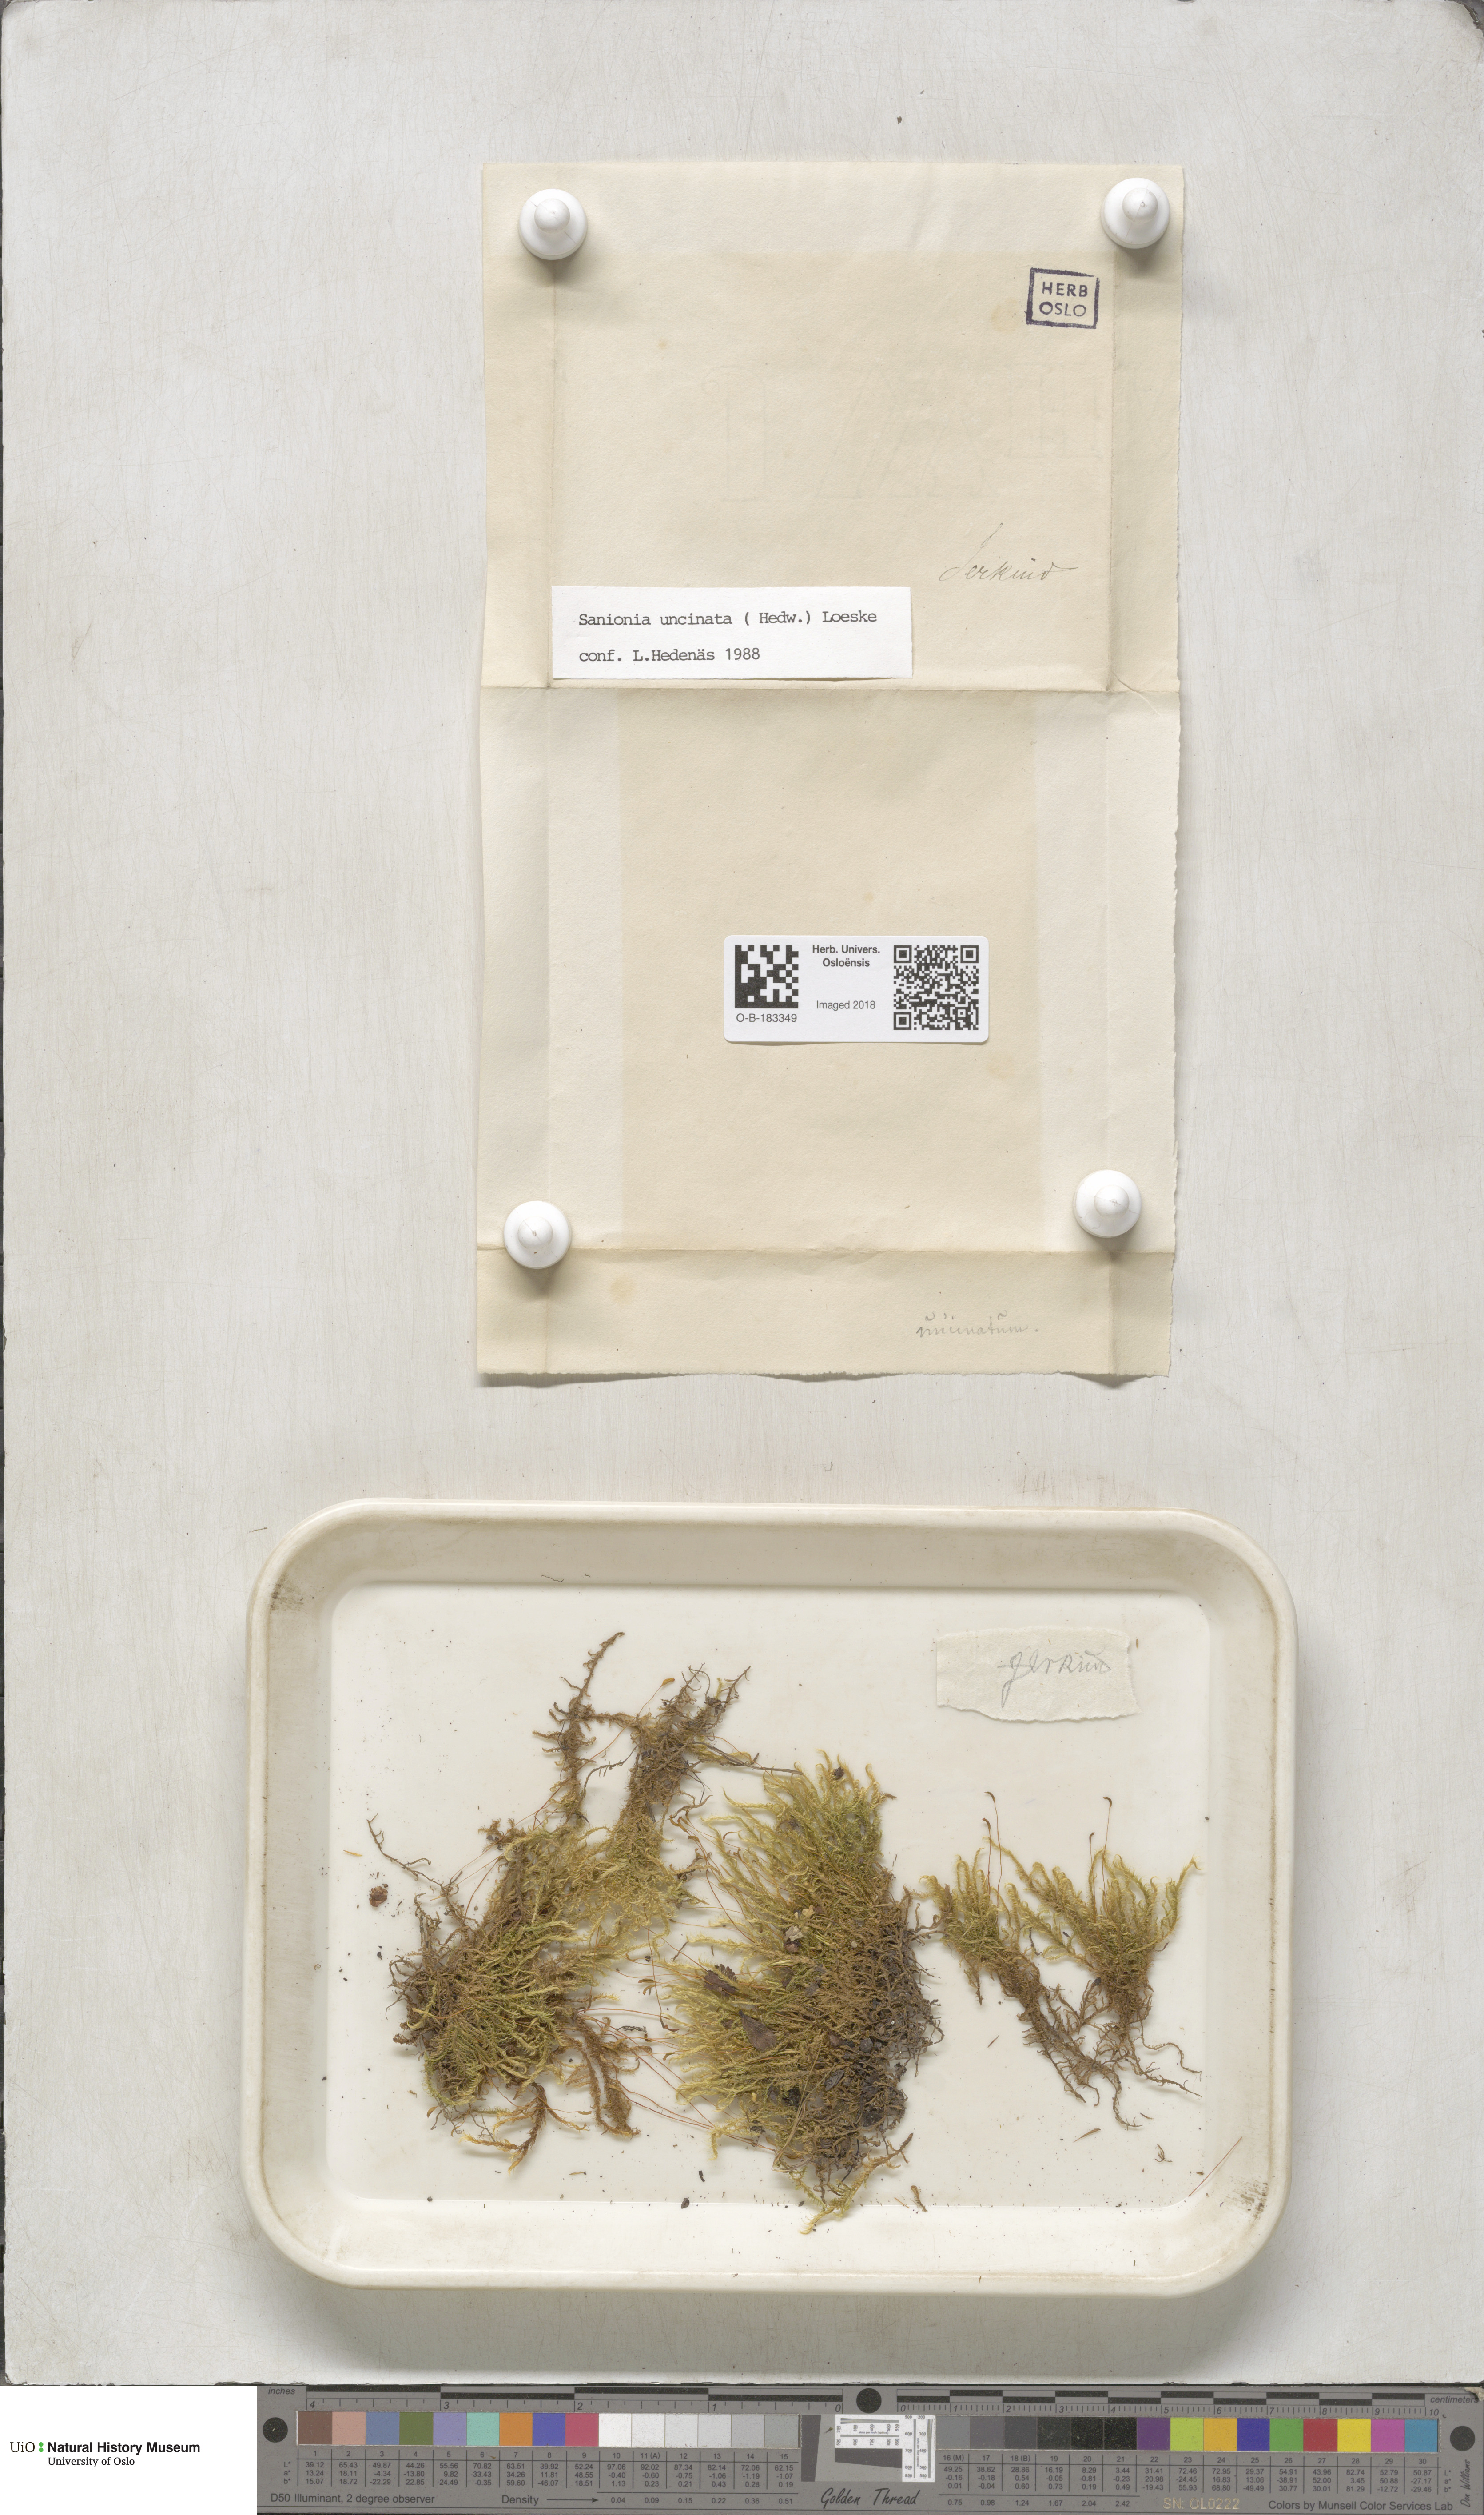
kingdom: Plantae
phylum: Bryophyta
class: Bryopsida
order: Hypnales
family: Scorpidiaceae
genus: Sanionia
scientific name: Sanionia uncinata
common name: Sickle moss
